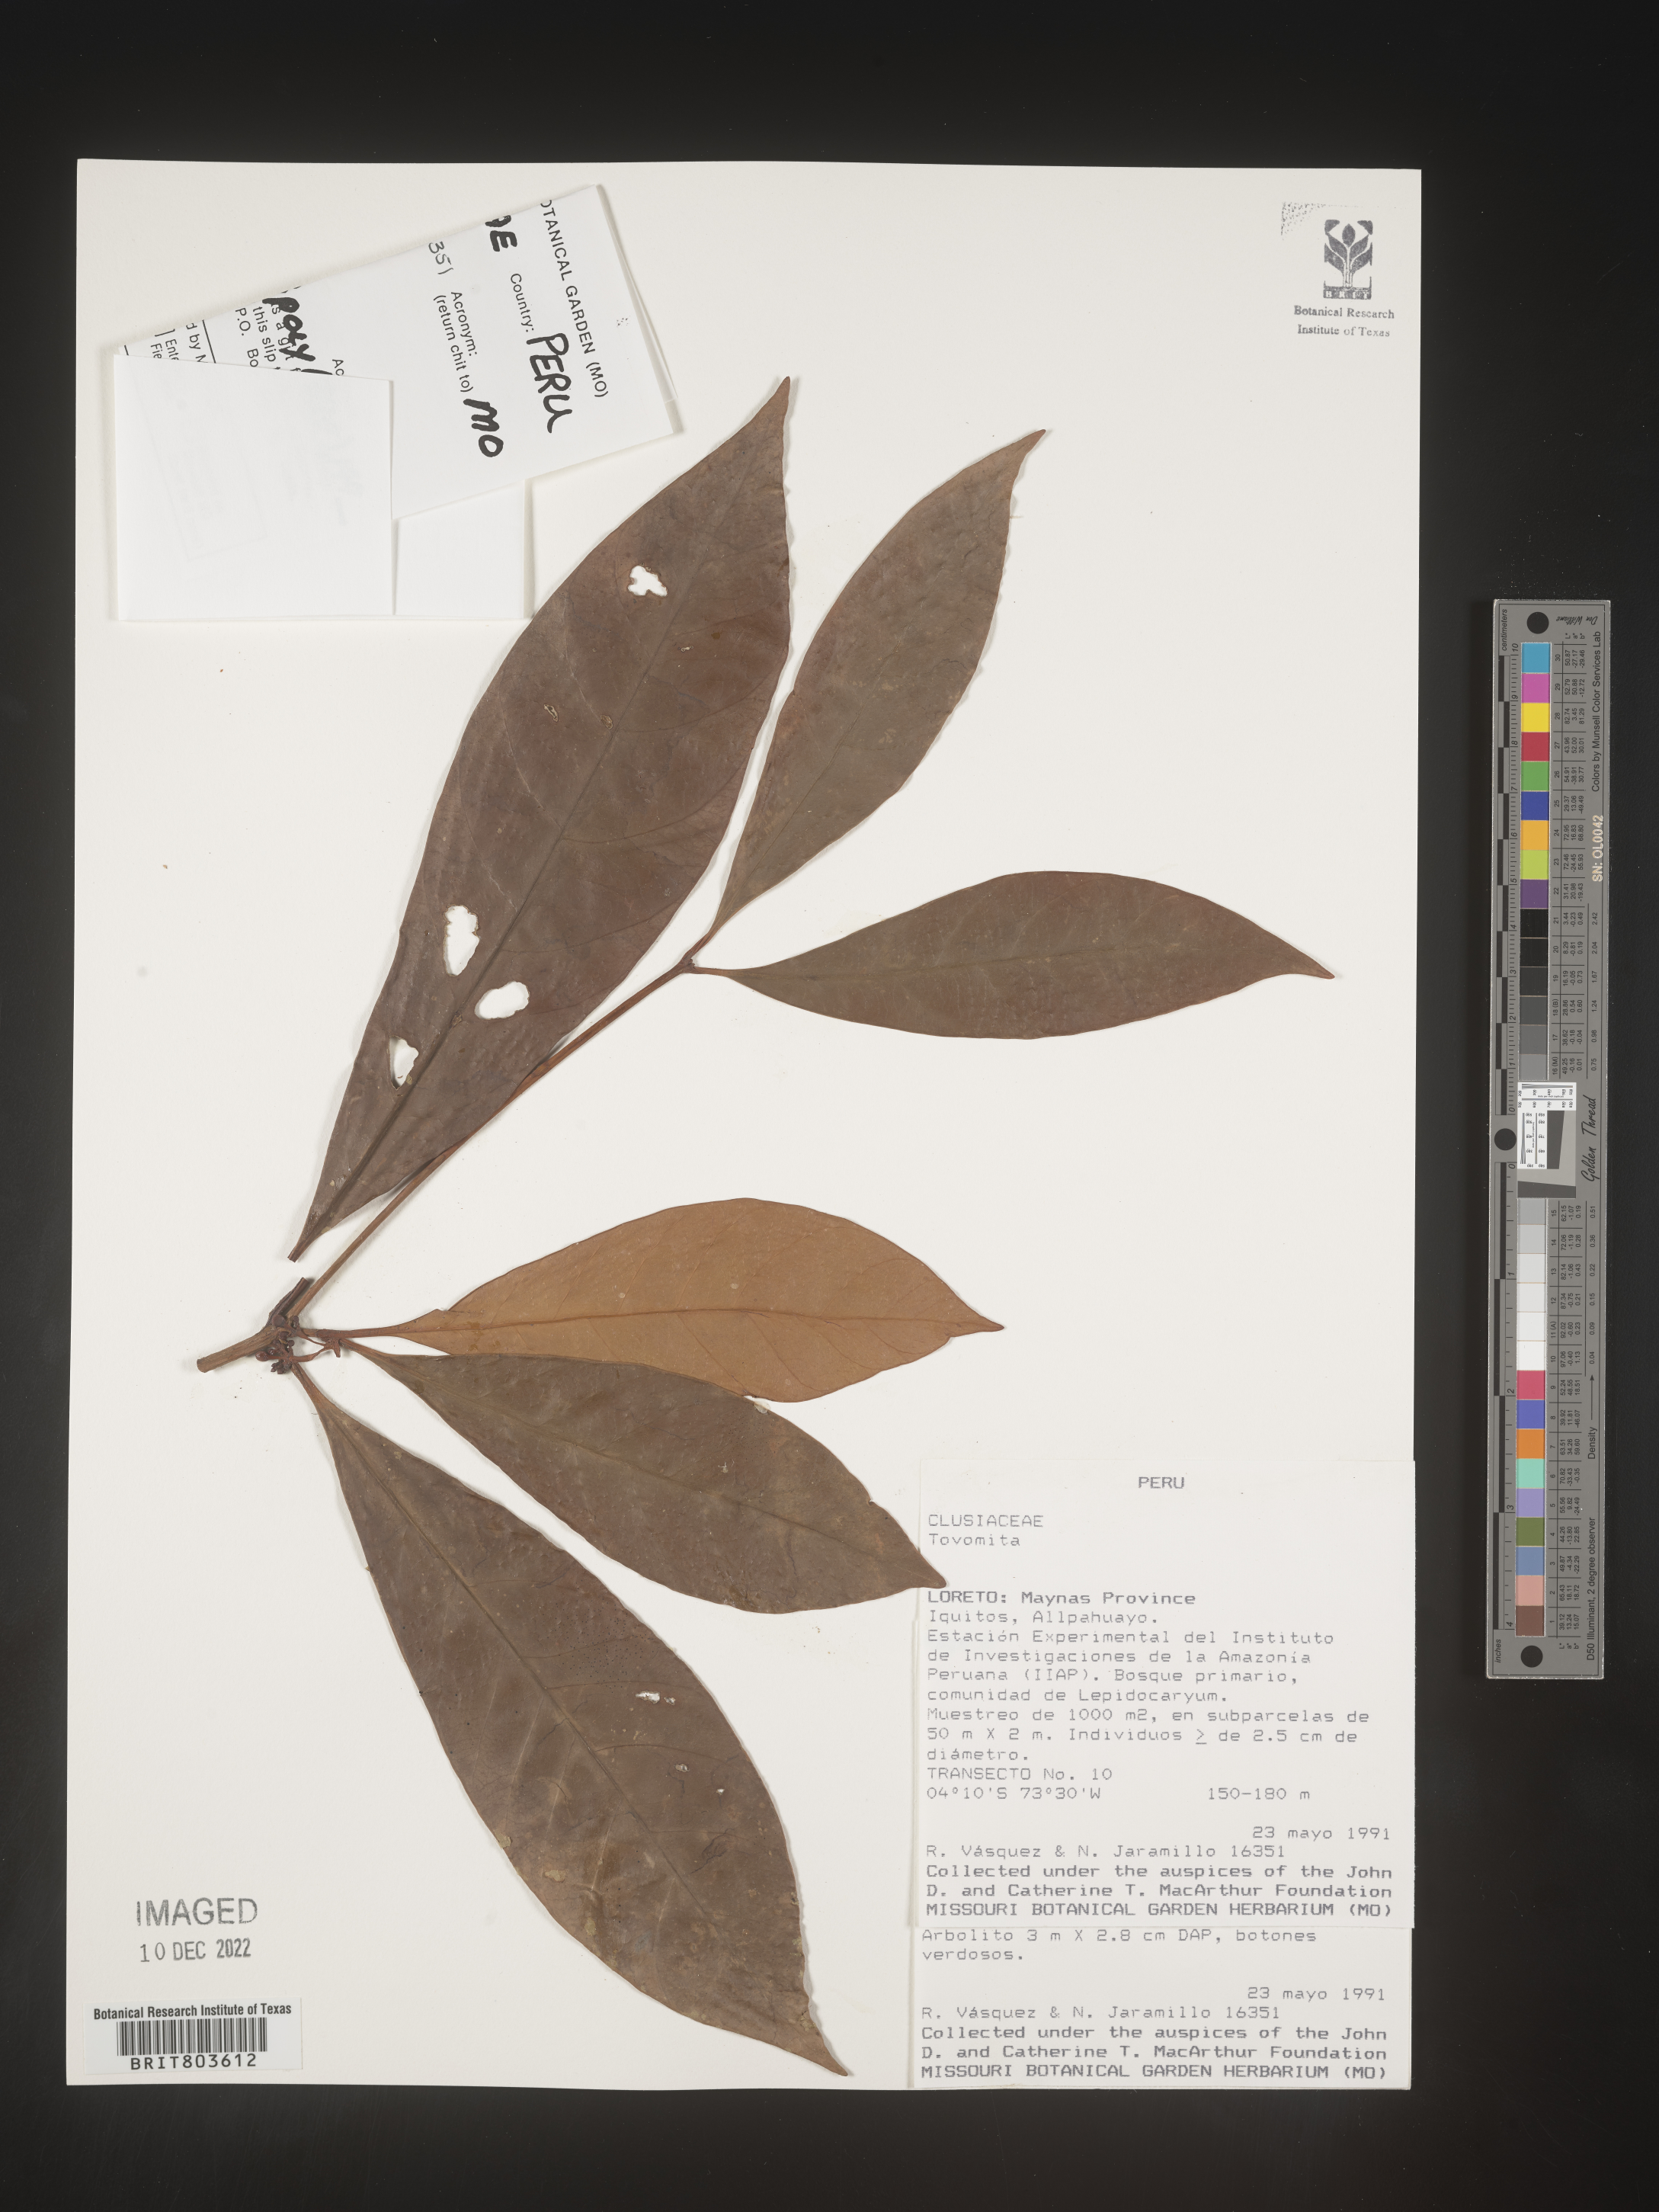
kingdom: Plantae
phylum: Tracheophyta
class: Magnoliopsida
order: Malpighiales
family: Clusiaceae
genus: Tovomita
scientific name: Tovomita
